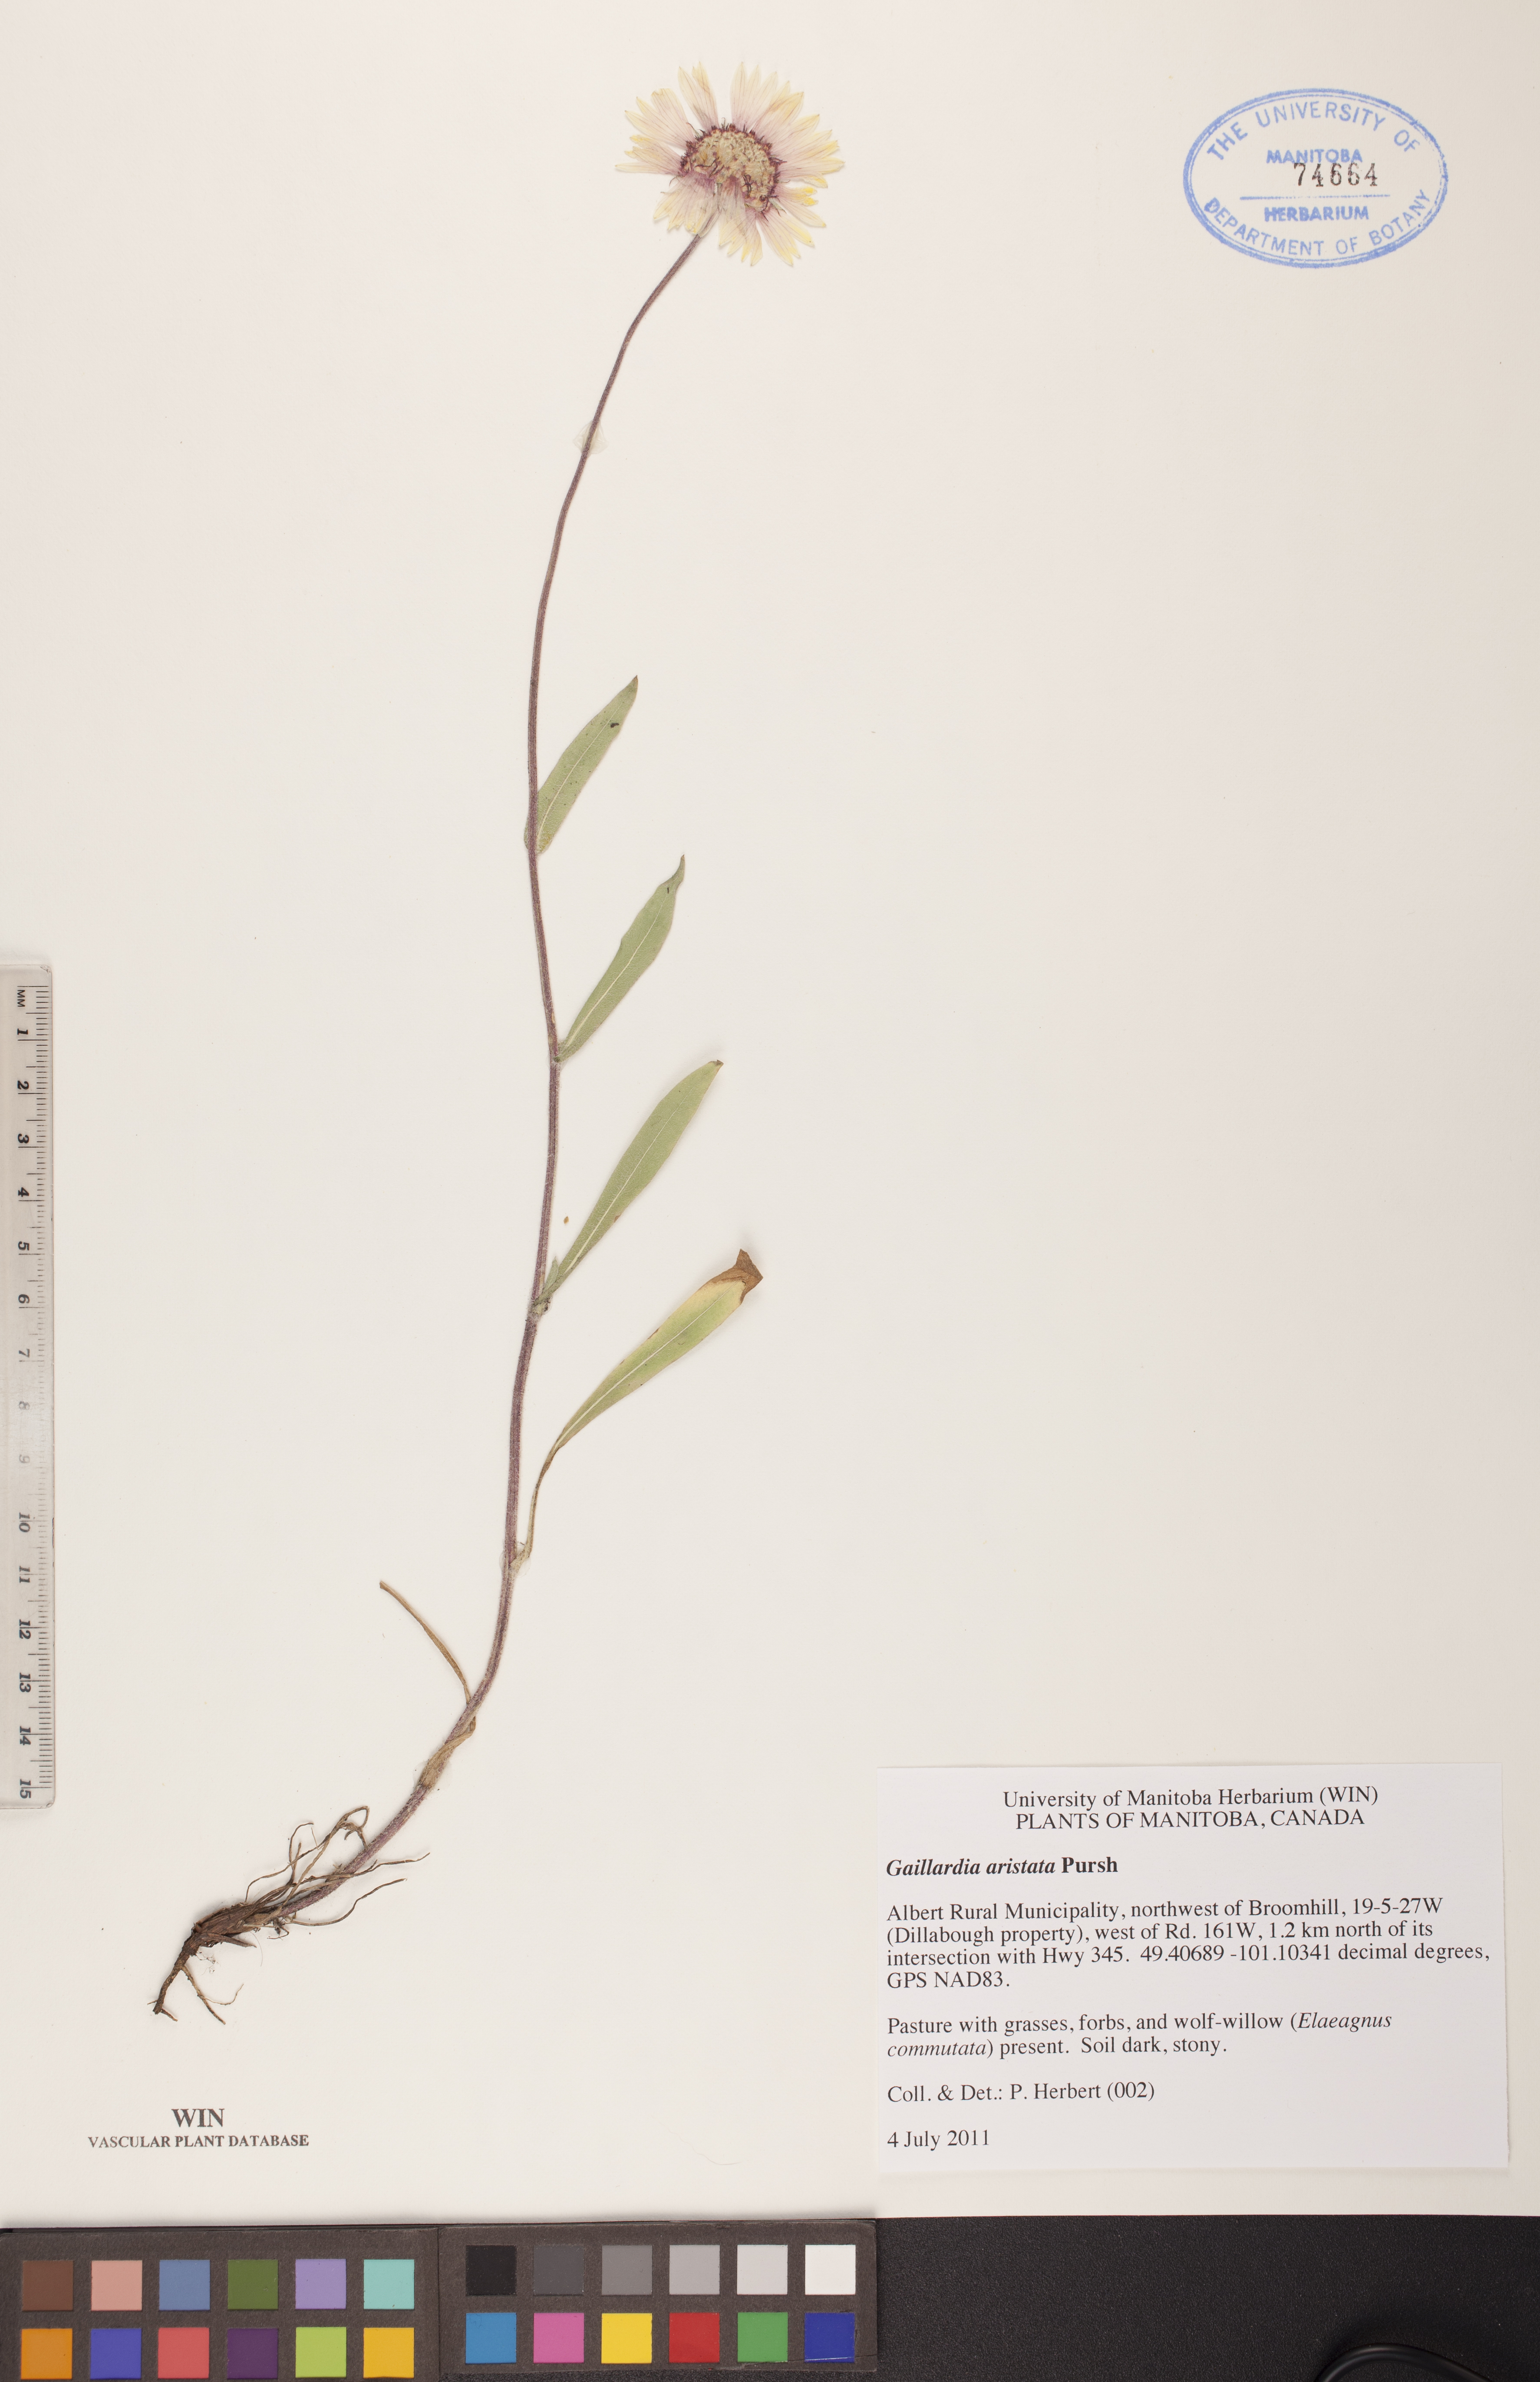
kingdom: Plantae
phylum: Tracheophyta
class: Magnoliopsida
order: Asterales
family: Asteraceae
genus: Gaillardia
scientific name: Gaillardia aristata
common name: Blanket-flower
